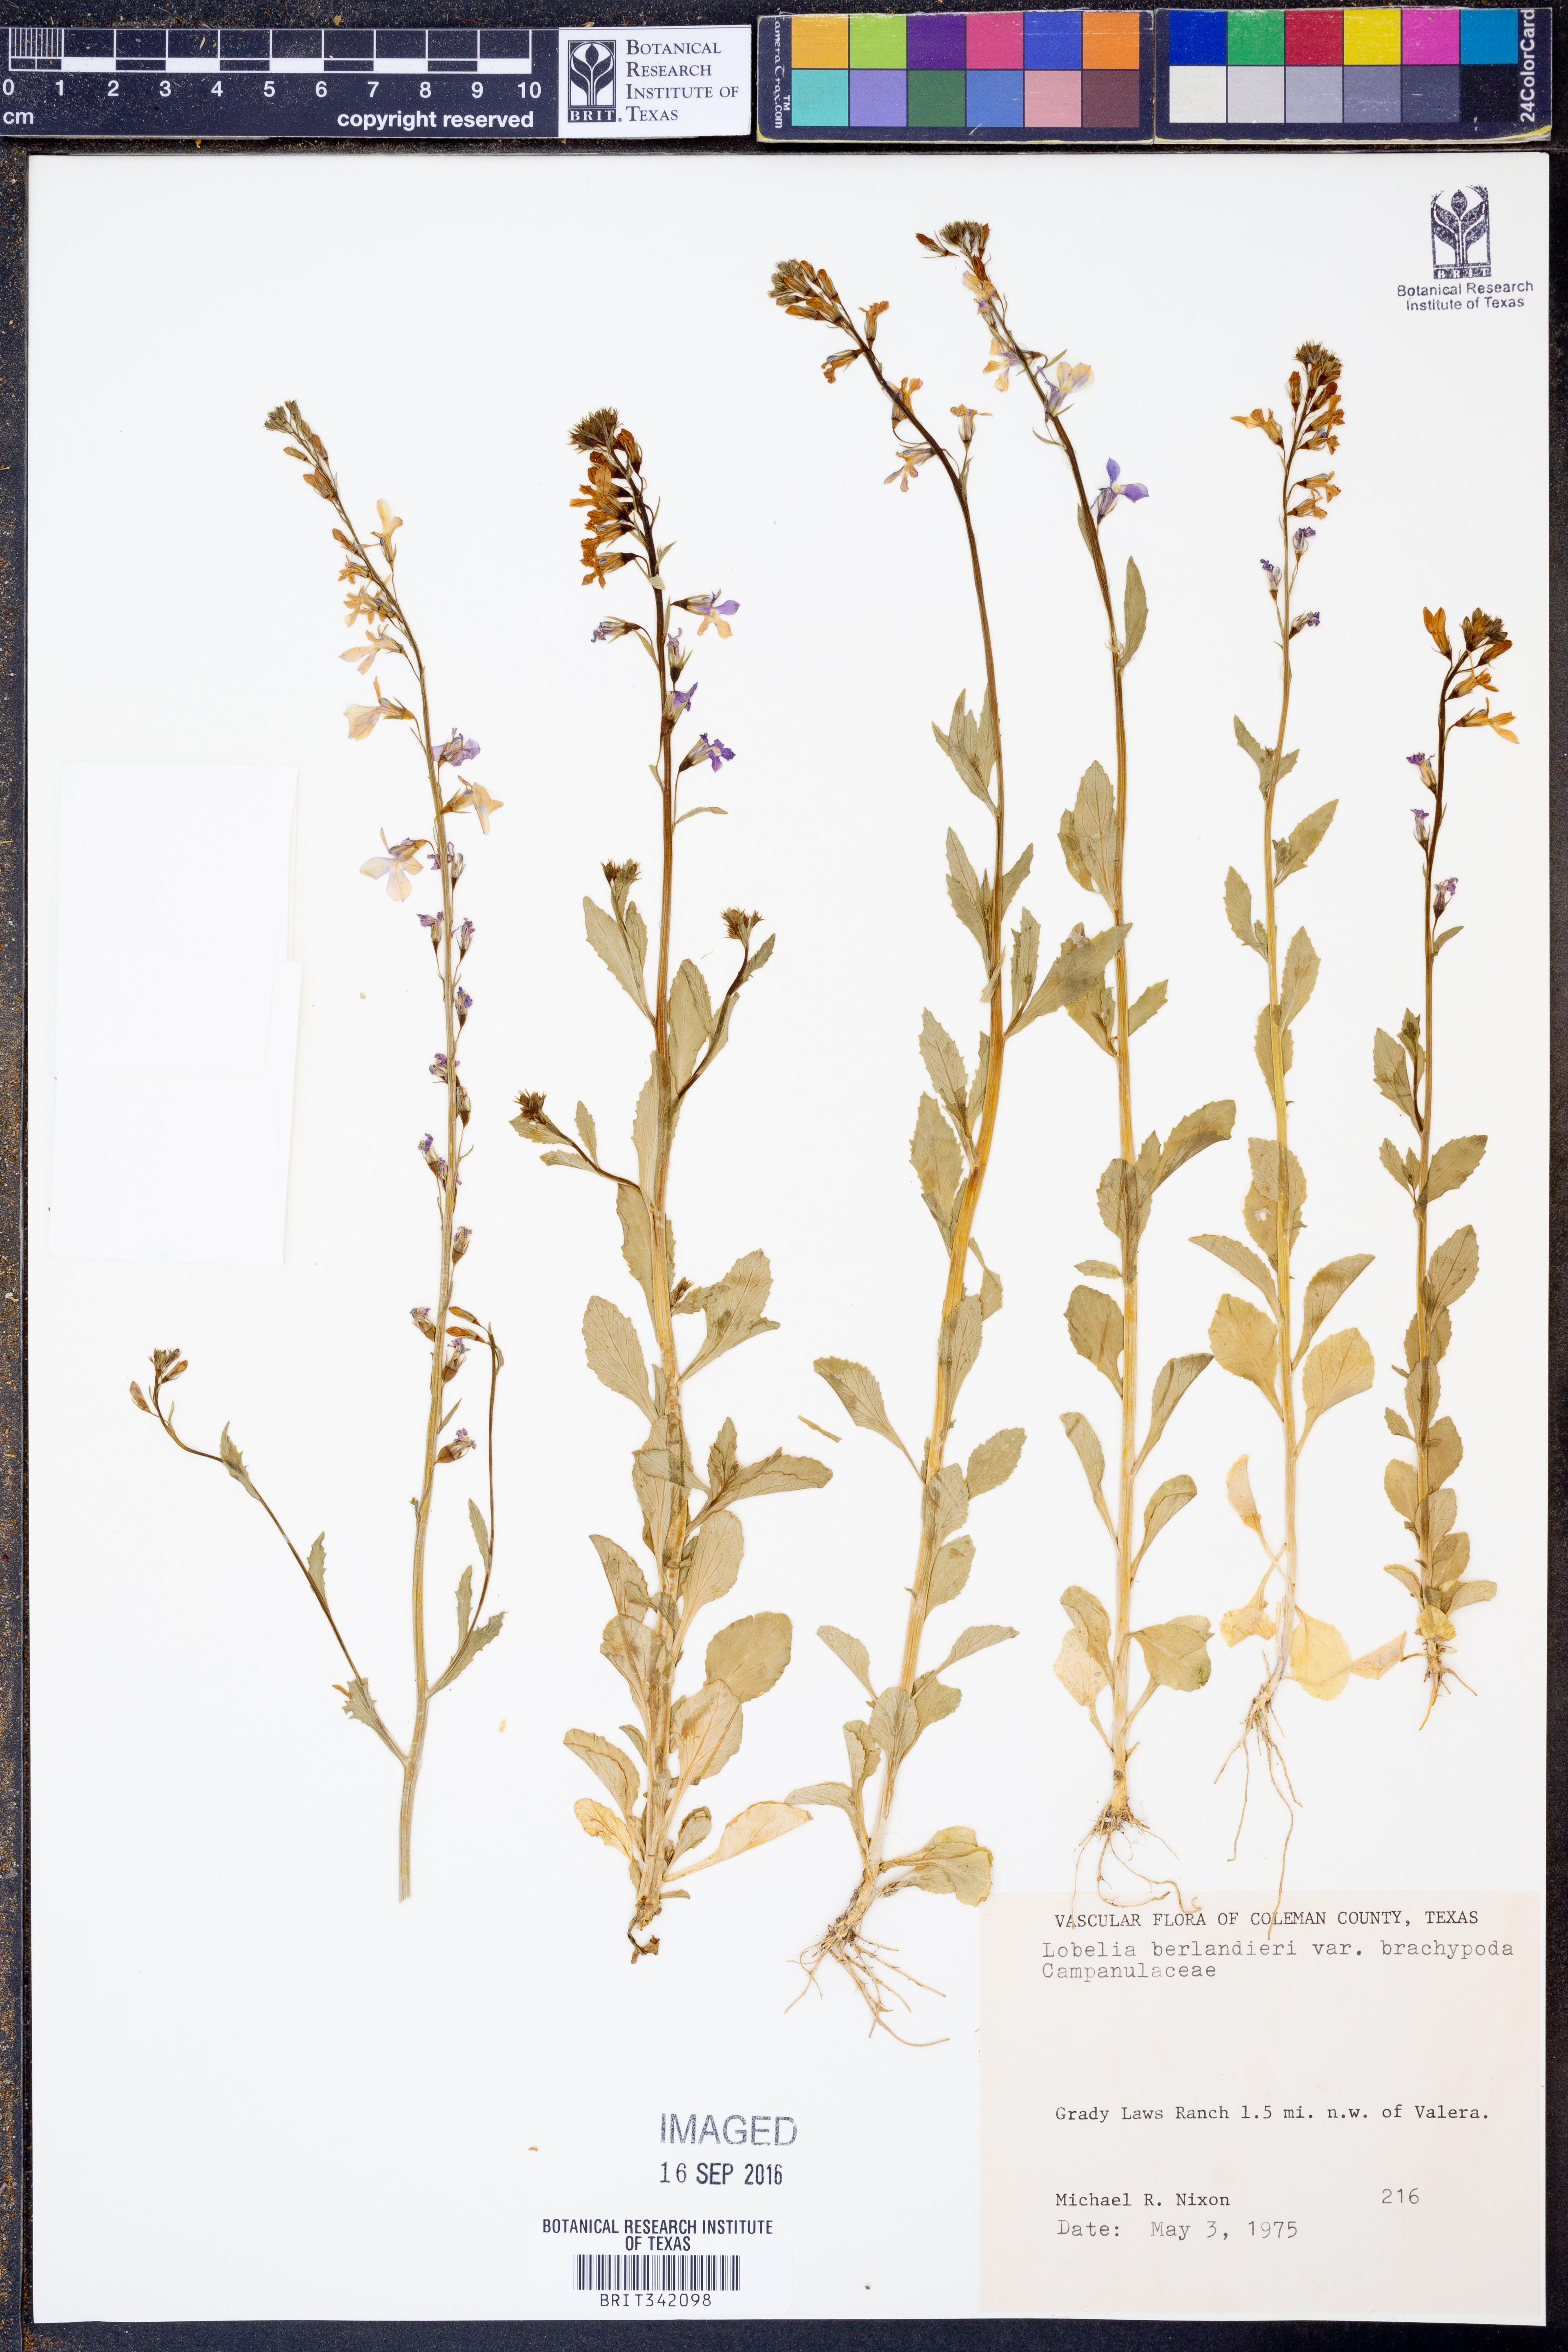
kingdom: Plantae
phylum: Tracheophyta
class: Magnoliopsida
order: Asterales
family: Campanulaceae
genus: Lobelia
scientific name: Lobelia berlandieri
